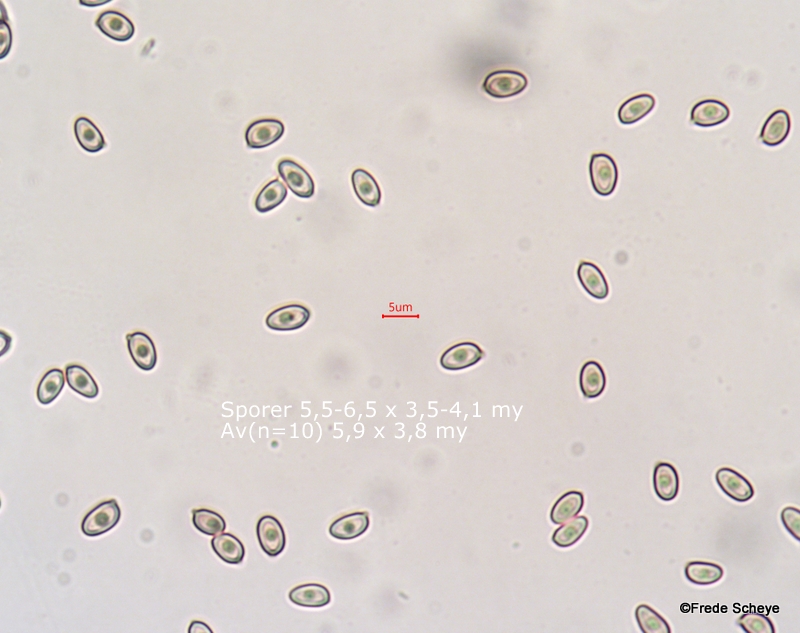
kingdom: Fungi
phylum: Basidiomycota
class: Agaricomycetes
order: Agaricales
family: Agaricaceae
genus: Agaricus
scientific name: Agaricus impudicus
